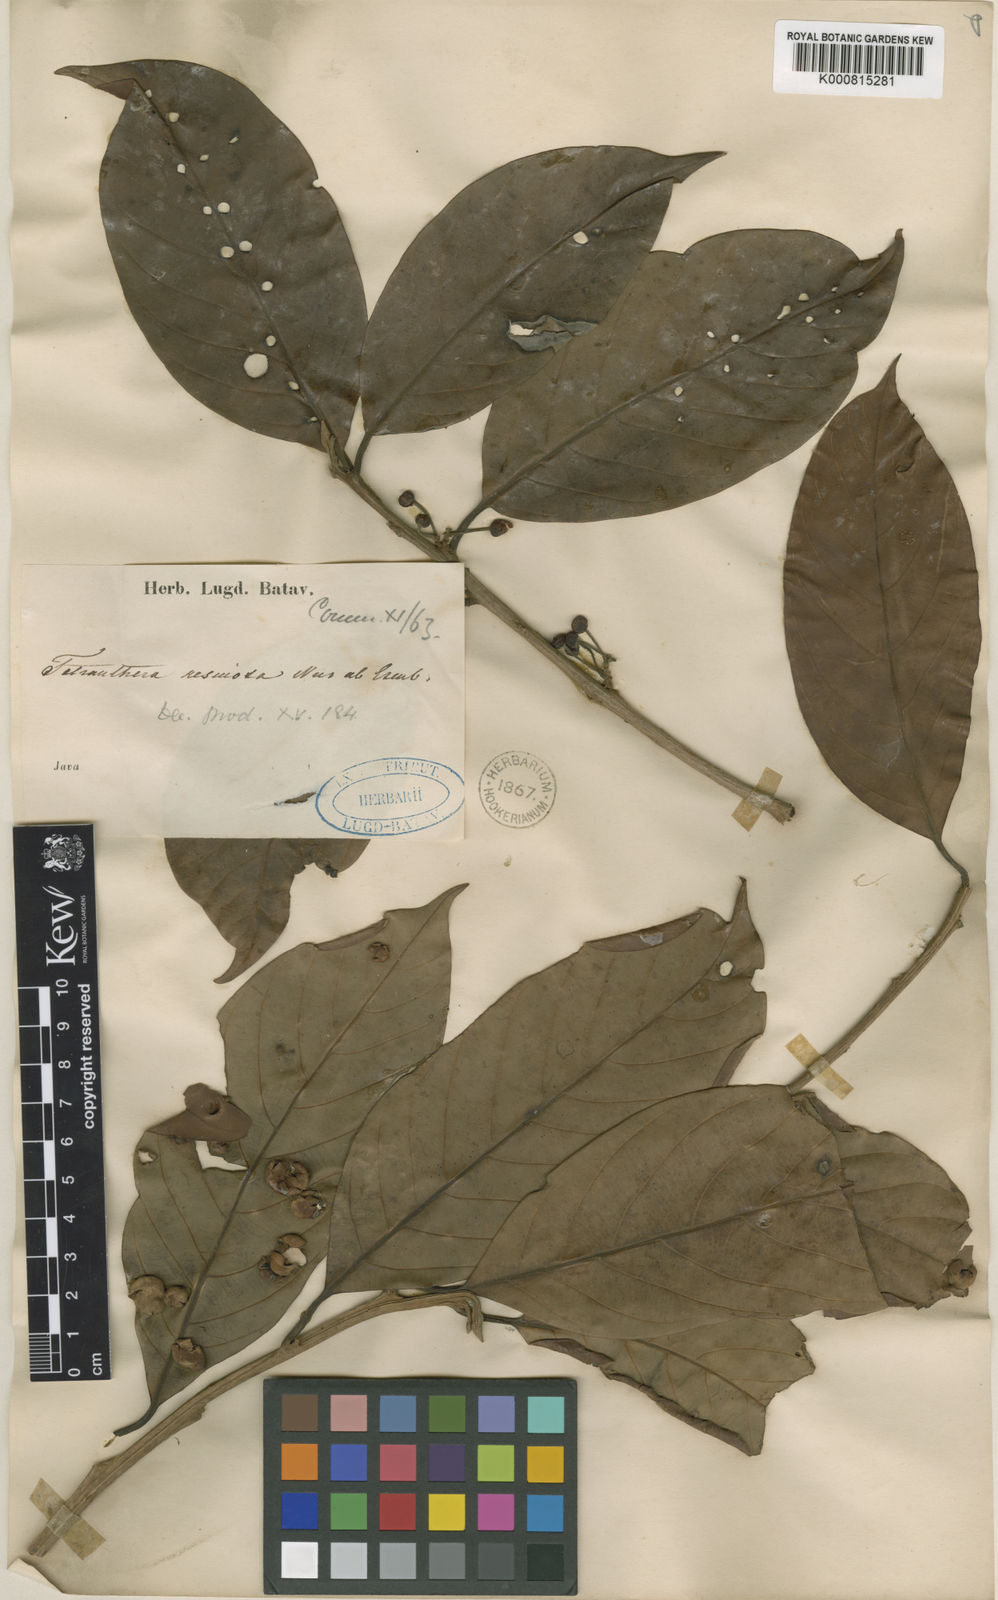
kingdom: Plantae
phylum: Tracheophyta
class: Magnoliopsida
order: Laurales
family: Lauraceae
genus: Litsea
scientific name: Litsea resinosa
